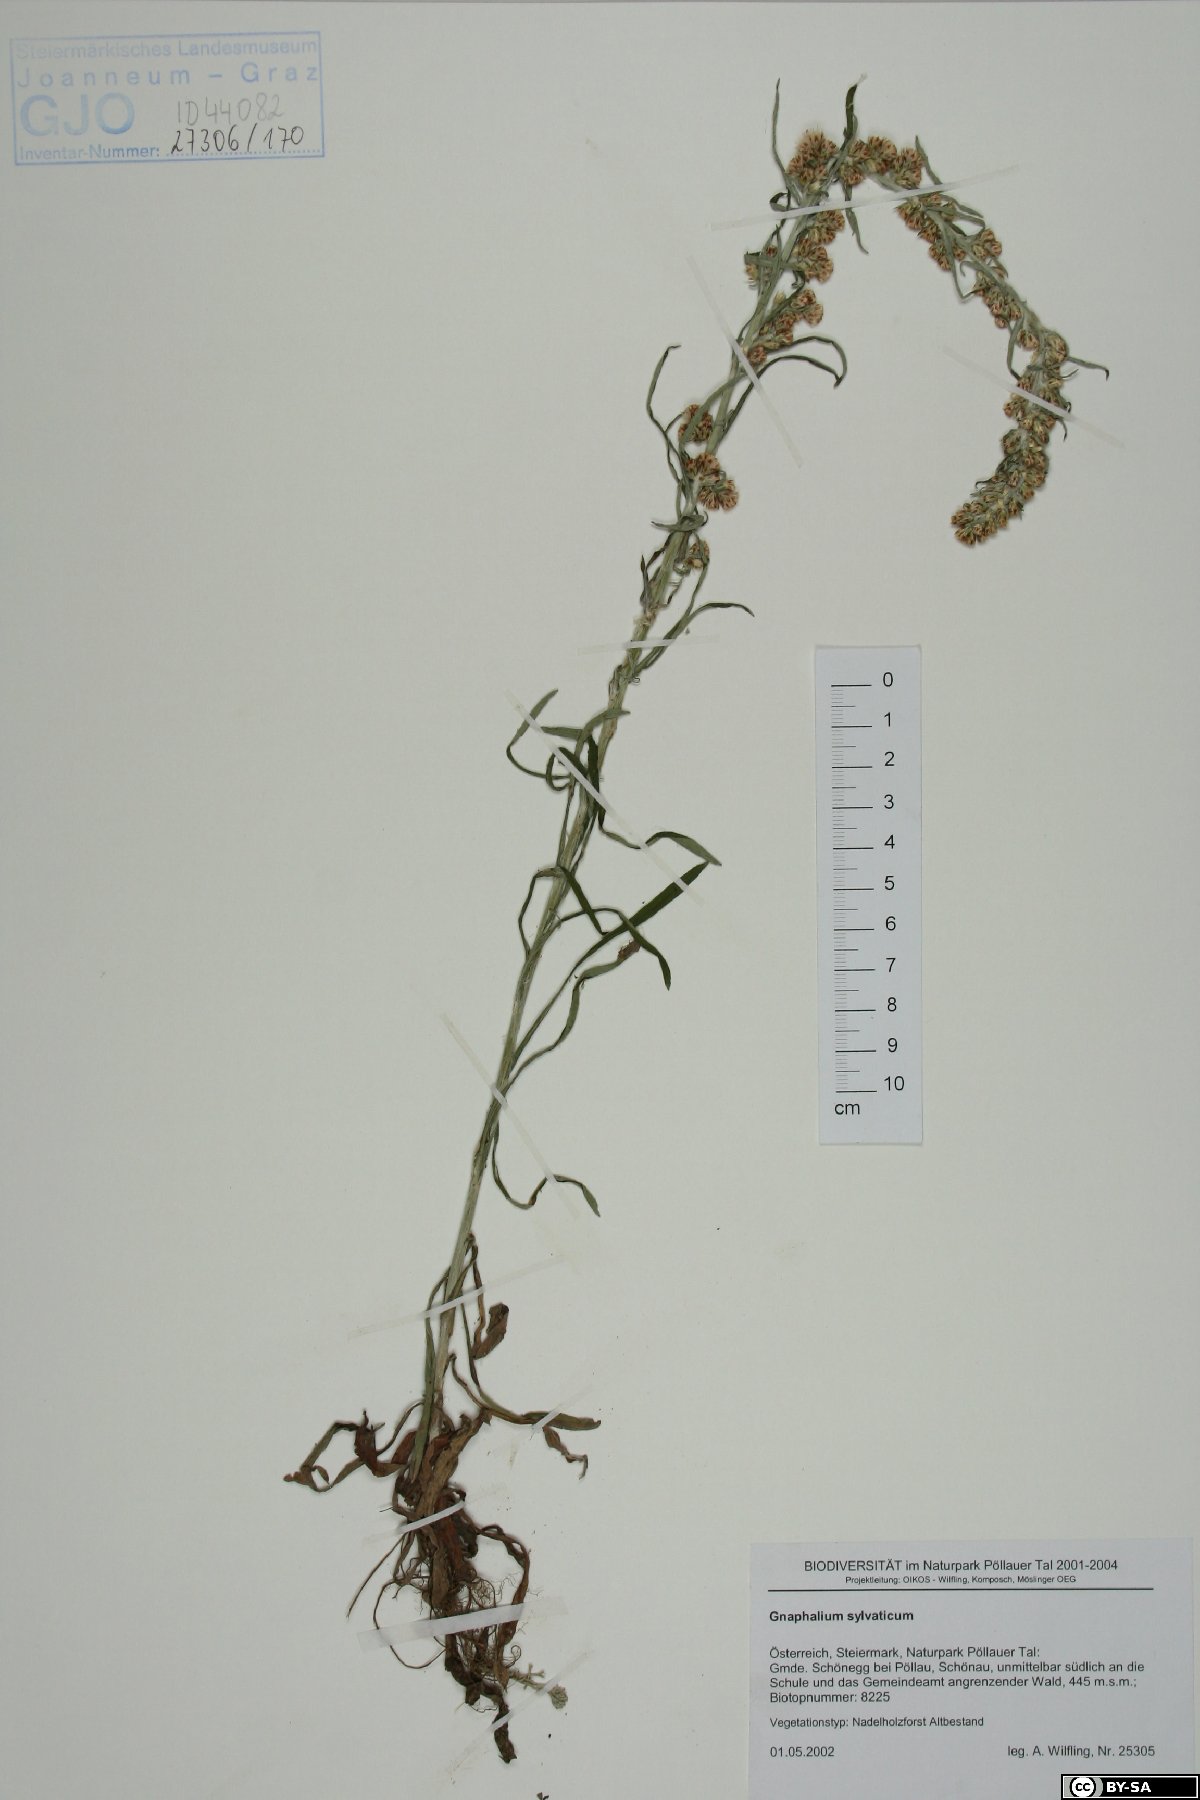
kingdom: Plantae
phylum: Tracheophyta
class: Magnoliopsida
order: Asterales
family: Asteraceae
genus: Omalotheca
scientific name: Omalotheca sylvatica
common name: Heath cudweed
